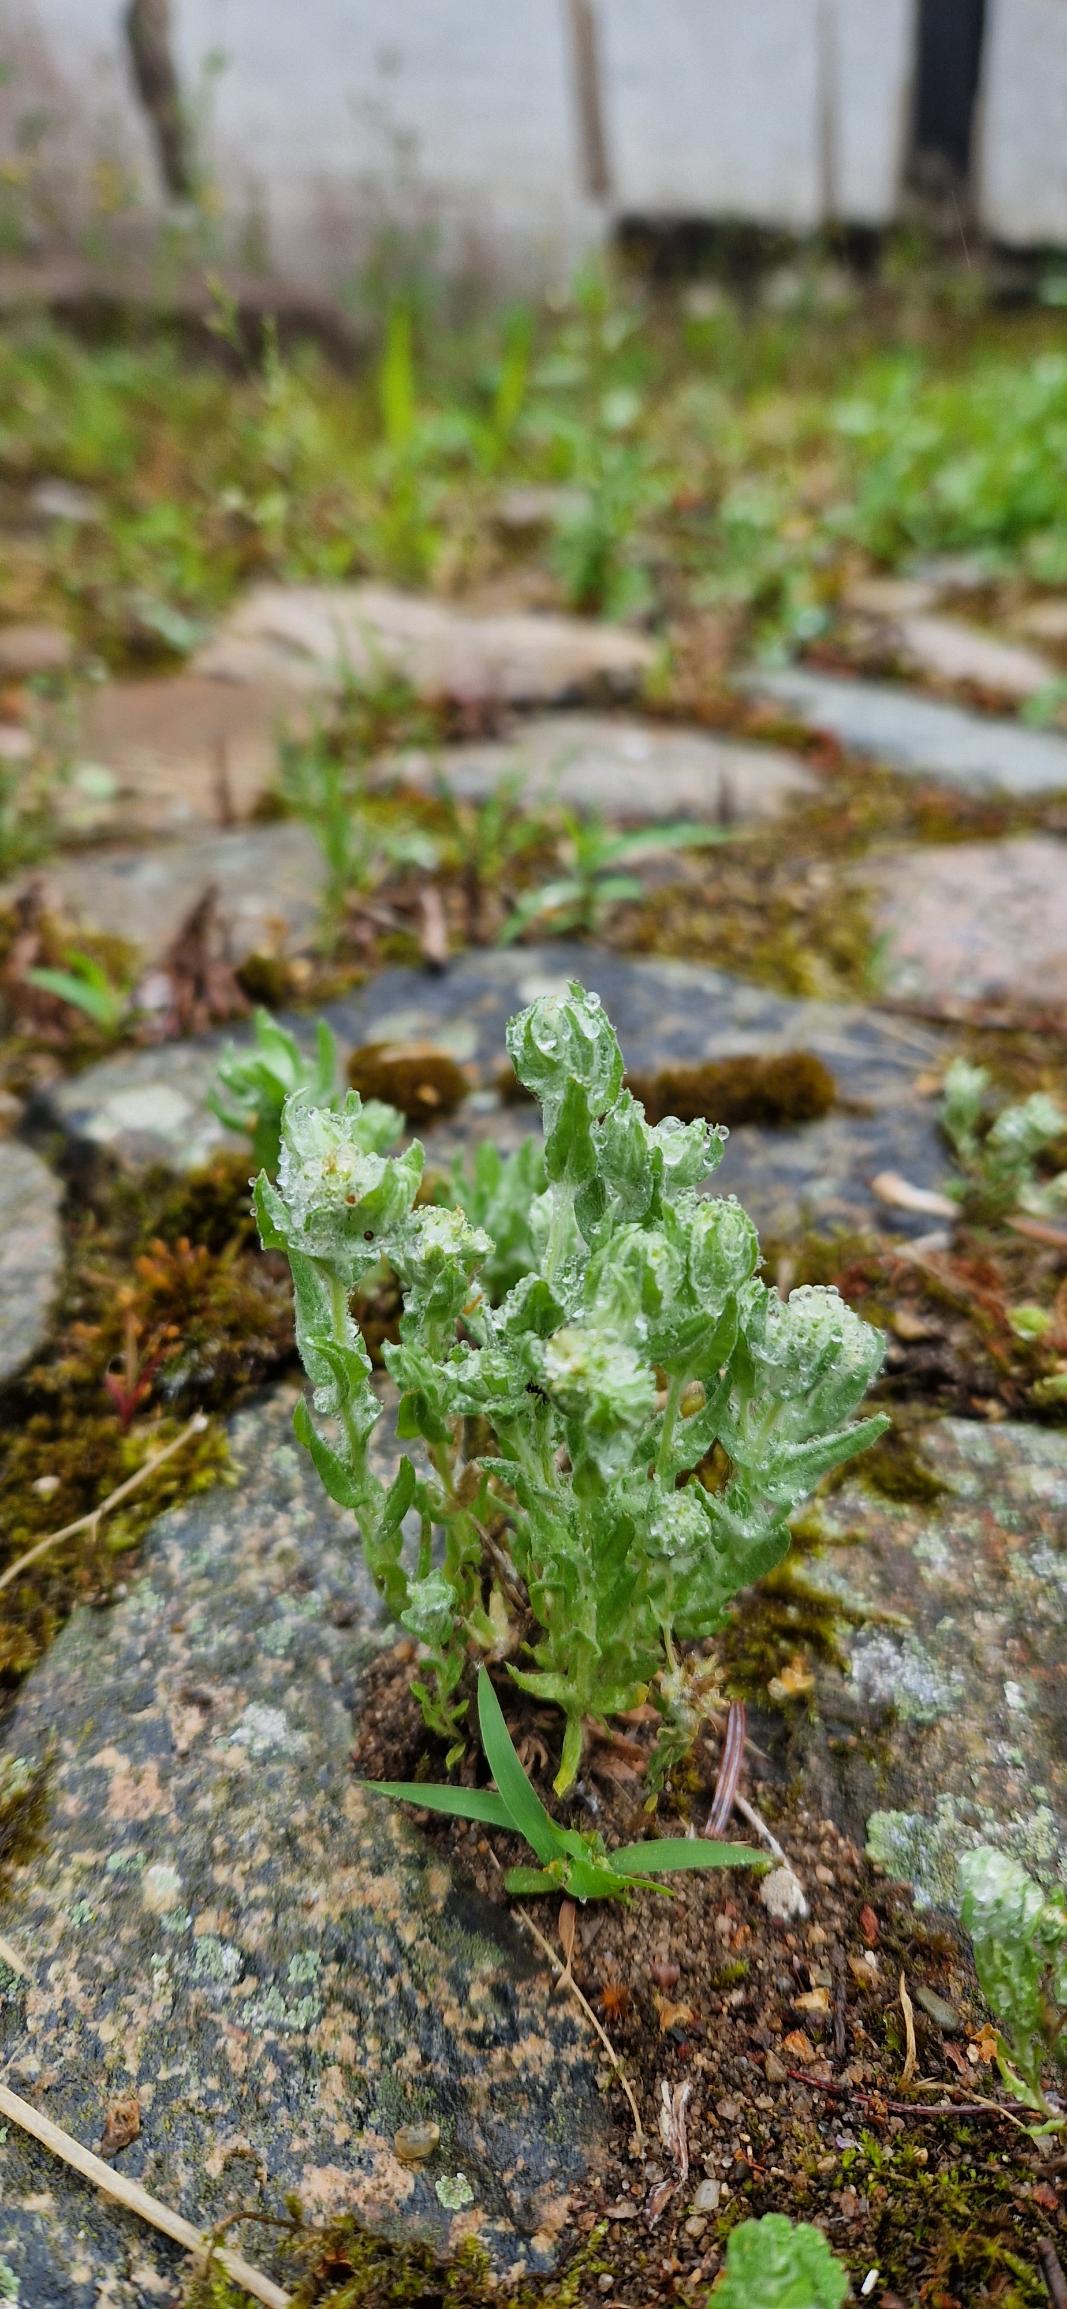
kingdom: Plantae
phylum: Tracheophyta
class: Magnoliopsida
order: Asterales
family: Asteraceae
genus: Filago
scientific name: Filago germanica
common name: Kugle-museurt
